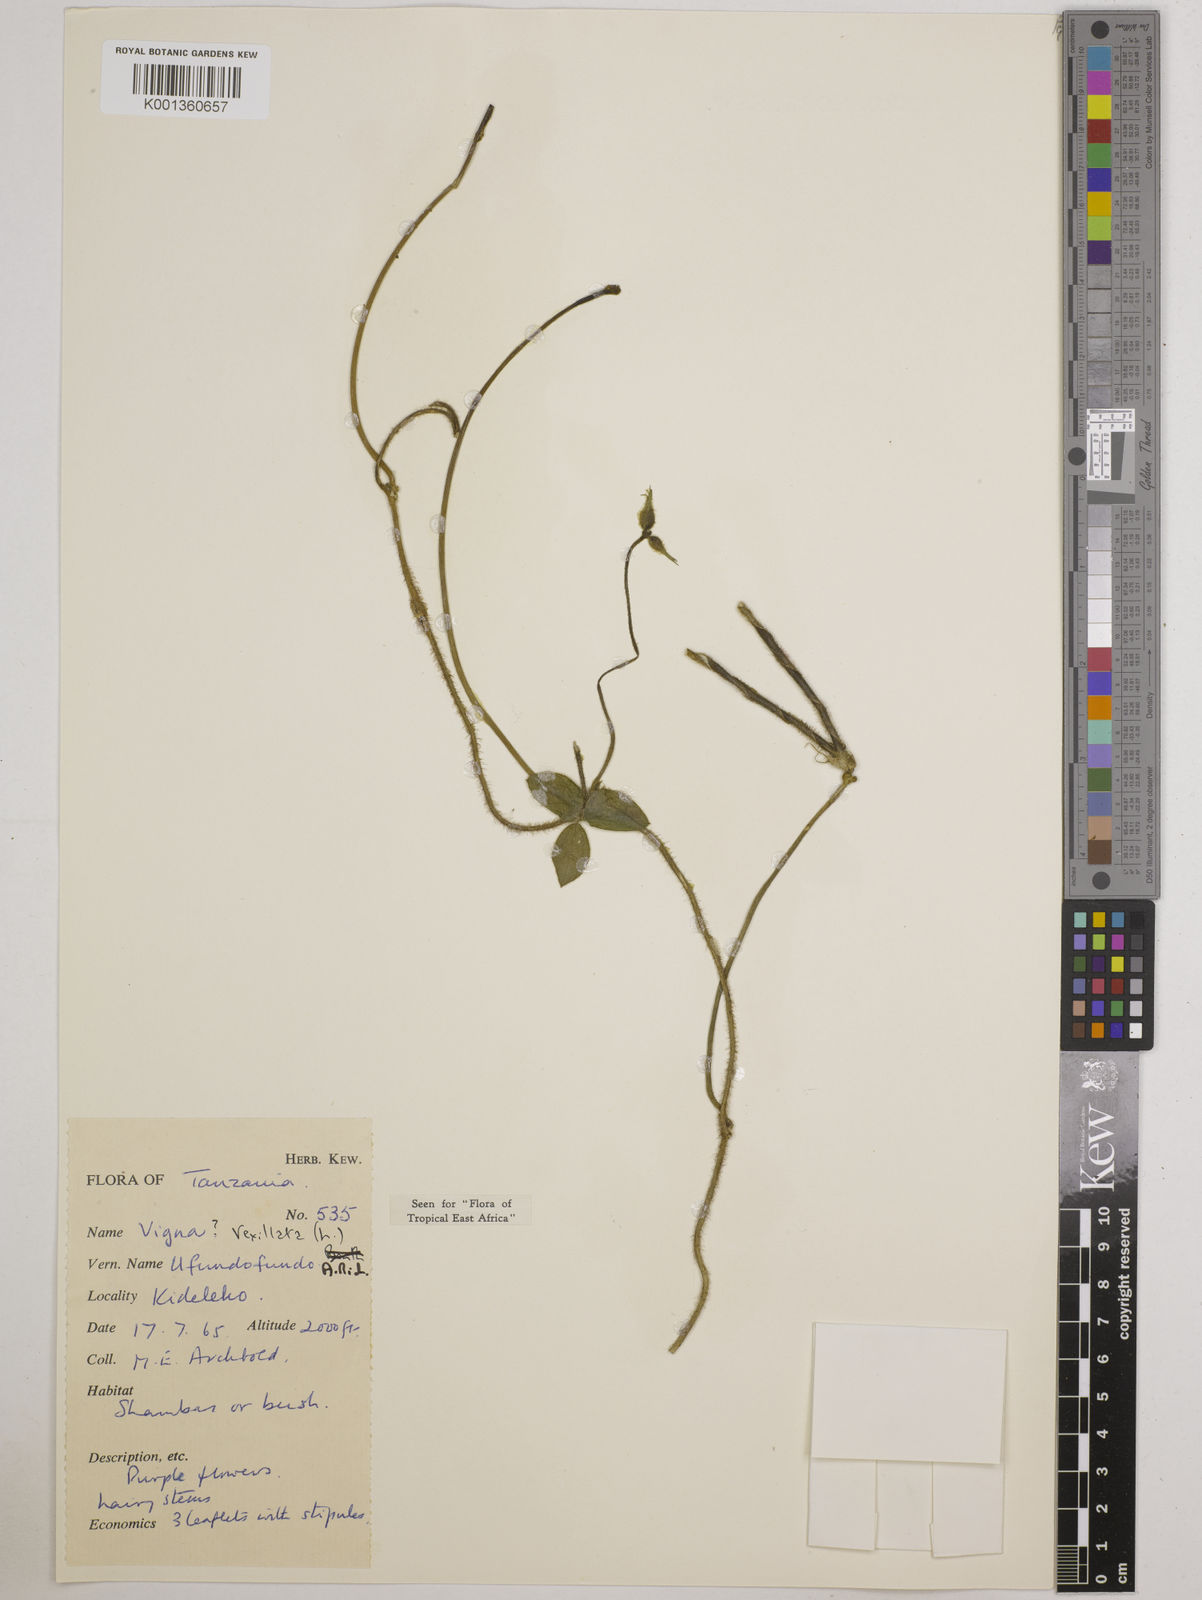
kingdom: Plantae
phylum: Tracheophyta
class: Magnoliopsida
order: Fabales
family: Fabaceae
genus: Vigna
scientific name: Vigna vexillata
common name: Zombi pea
